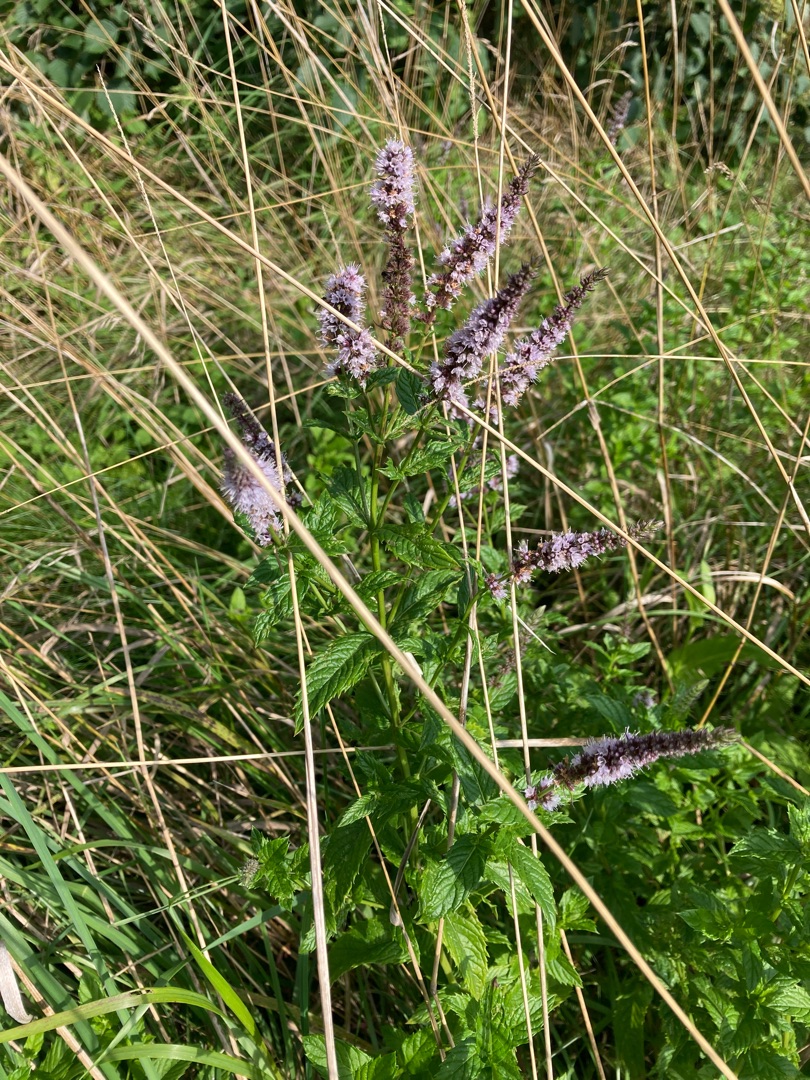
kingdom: Plantae
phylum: Tracheophyta
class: Magnoliopsida
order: Lamiales
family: Lamiaceae
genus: Mentha
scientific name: Mentha spicata
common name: Grøn mynte
